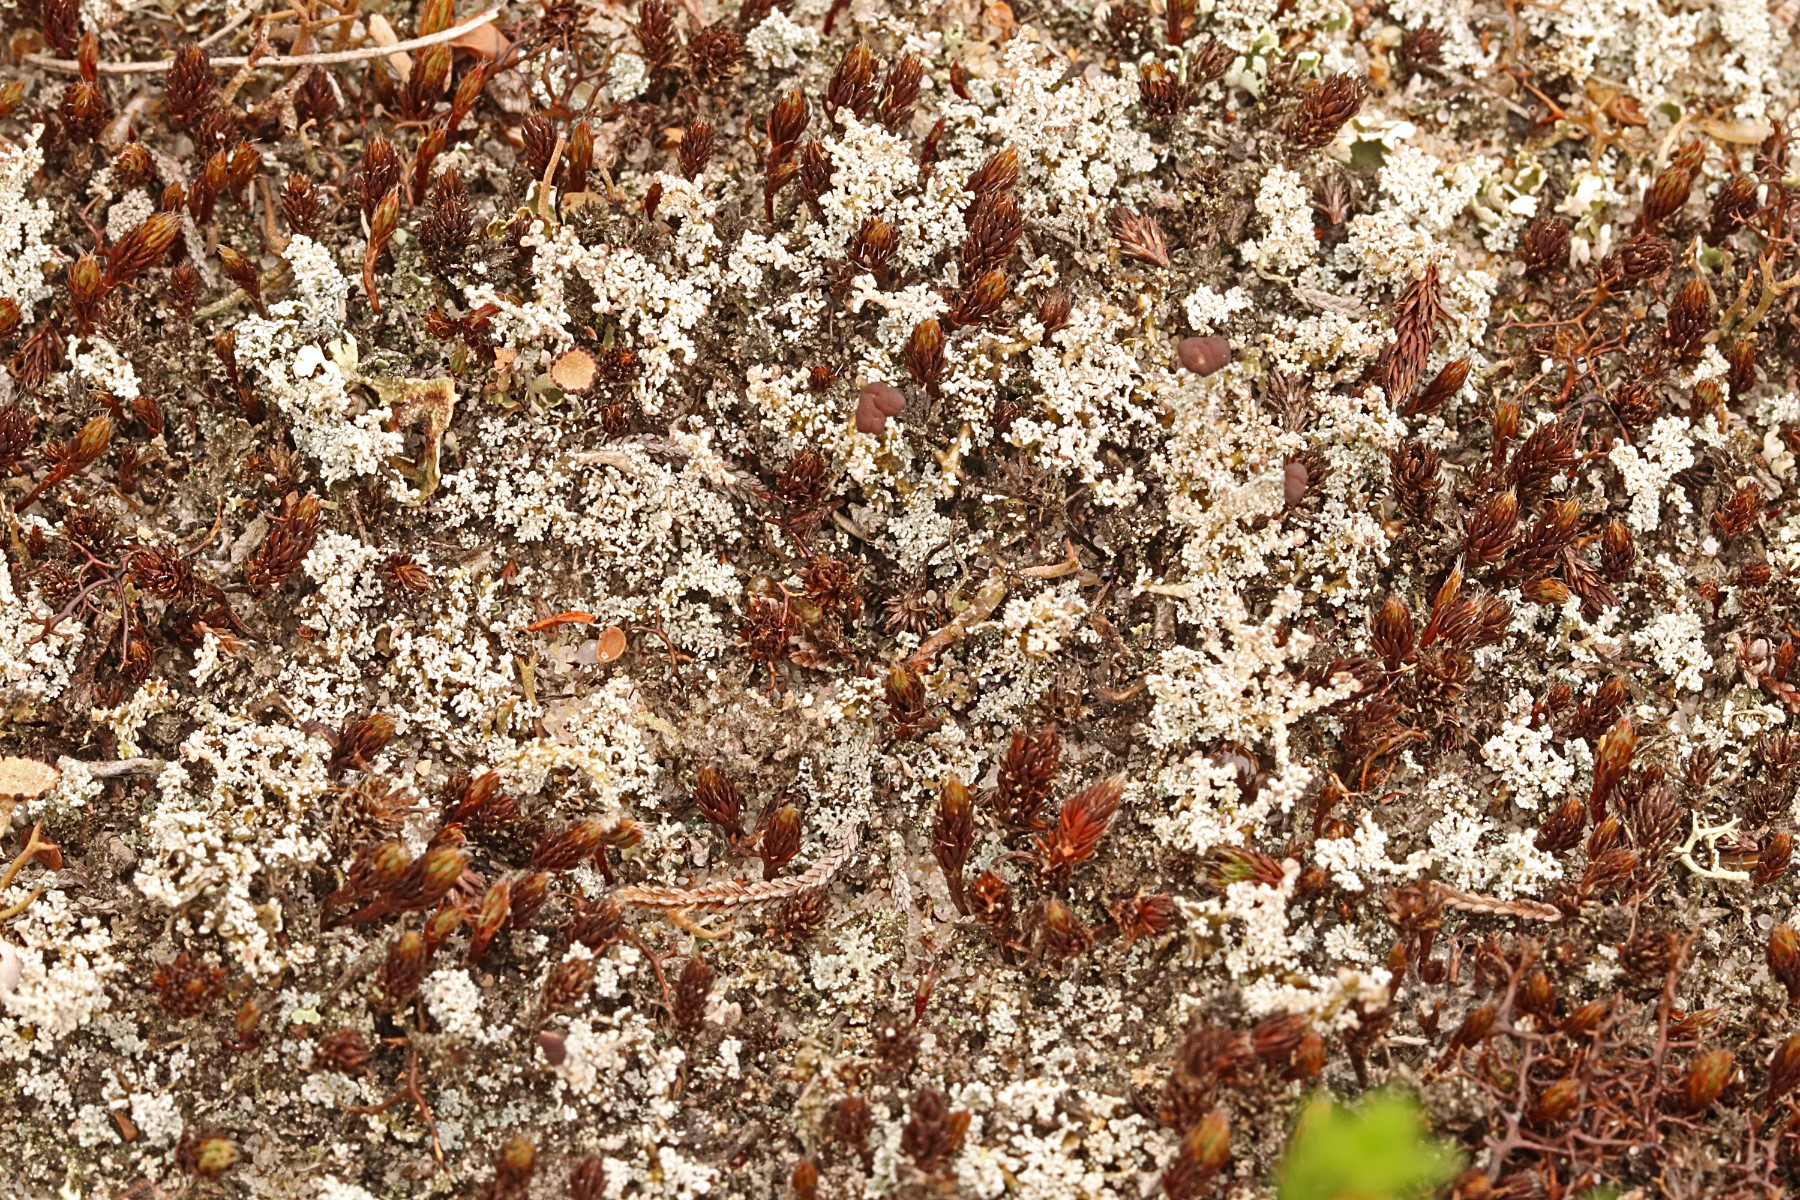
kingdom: Fungi
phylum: Ascomycota
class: Lecanoromycetes
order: Lecanorales
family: Stereocaulaceae
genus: Stereocaulon
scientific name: Stereocaulon saxatile
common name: klit-korallav
